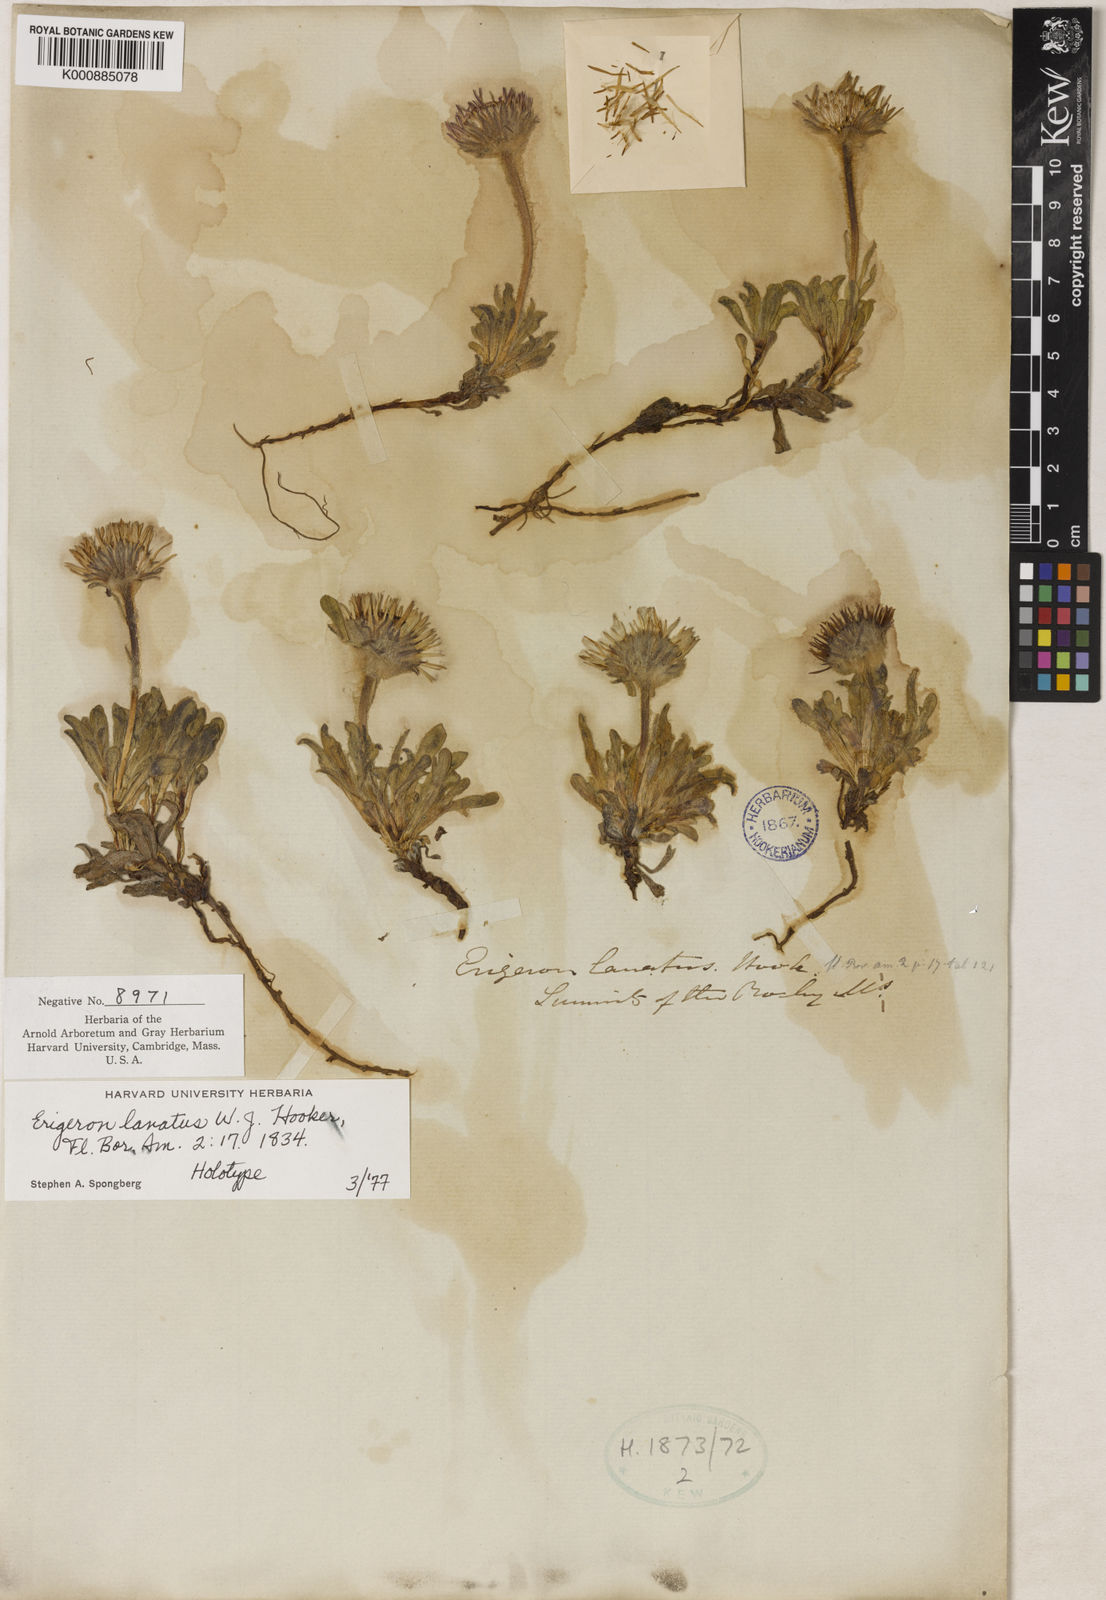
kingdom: Plantae
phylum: Tracheophyta
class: Magnoliopsida
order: Asterales
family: Asteraceae
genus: Erigeron
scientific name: Erigeron lanatus
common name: Hairy daisy
